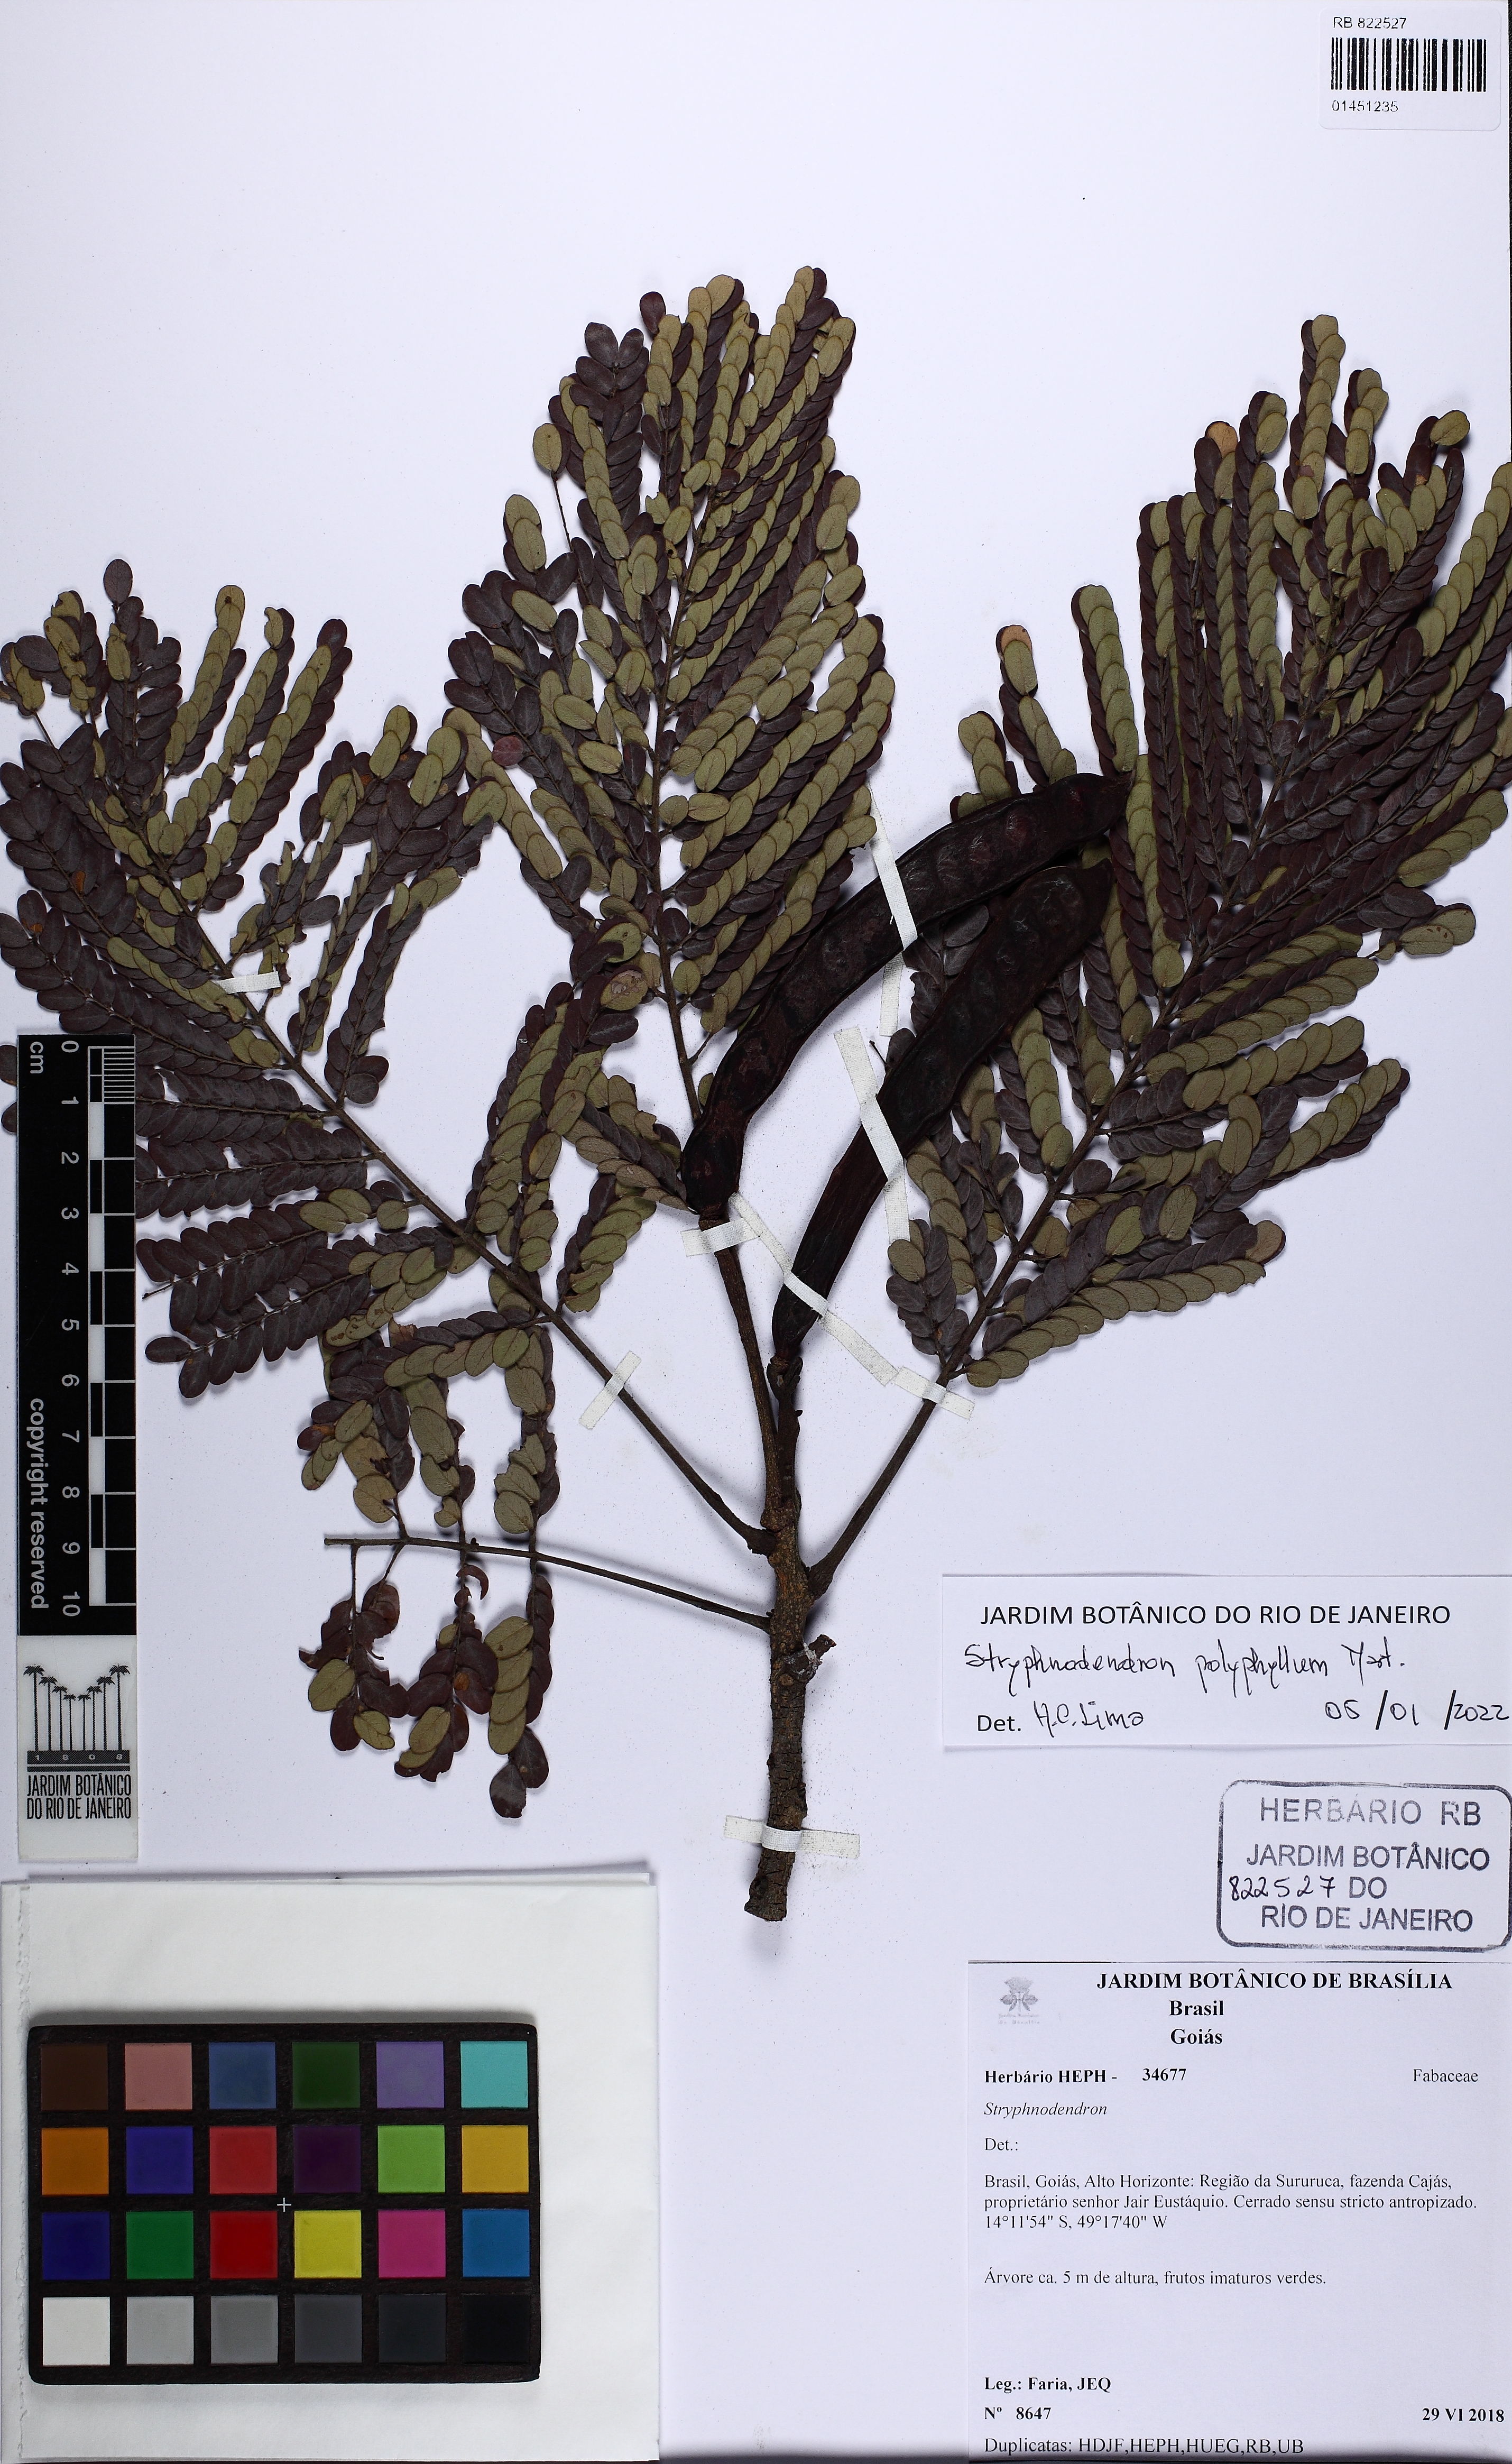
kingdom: Plantae
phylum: Tracheophyta
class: Magnoliopsida
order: Fabales
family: Fabaceae
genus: Stryphnodendron
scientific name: Stryphnodendron polyphyllum
